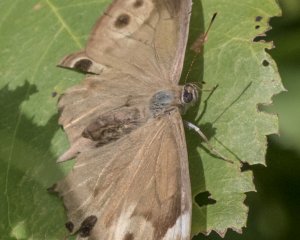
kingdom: Animalia
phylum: Arthropoda
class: Insecta
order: Lepidoptera
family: Nymphalidae
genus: Lethe
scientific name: Lethe anthedon
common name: Northern Pearly-Eye
